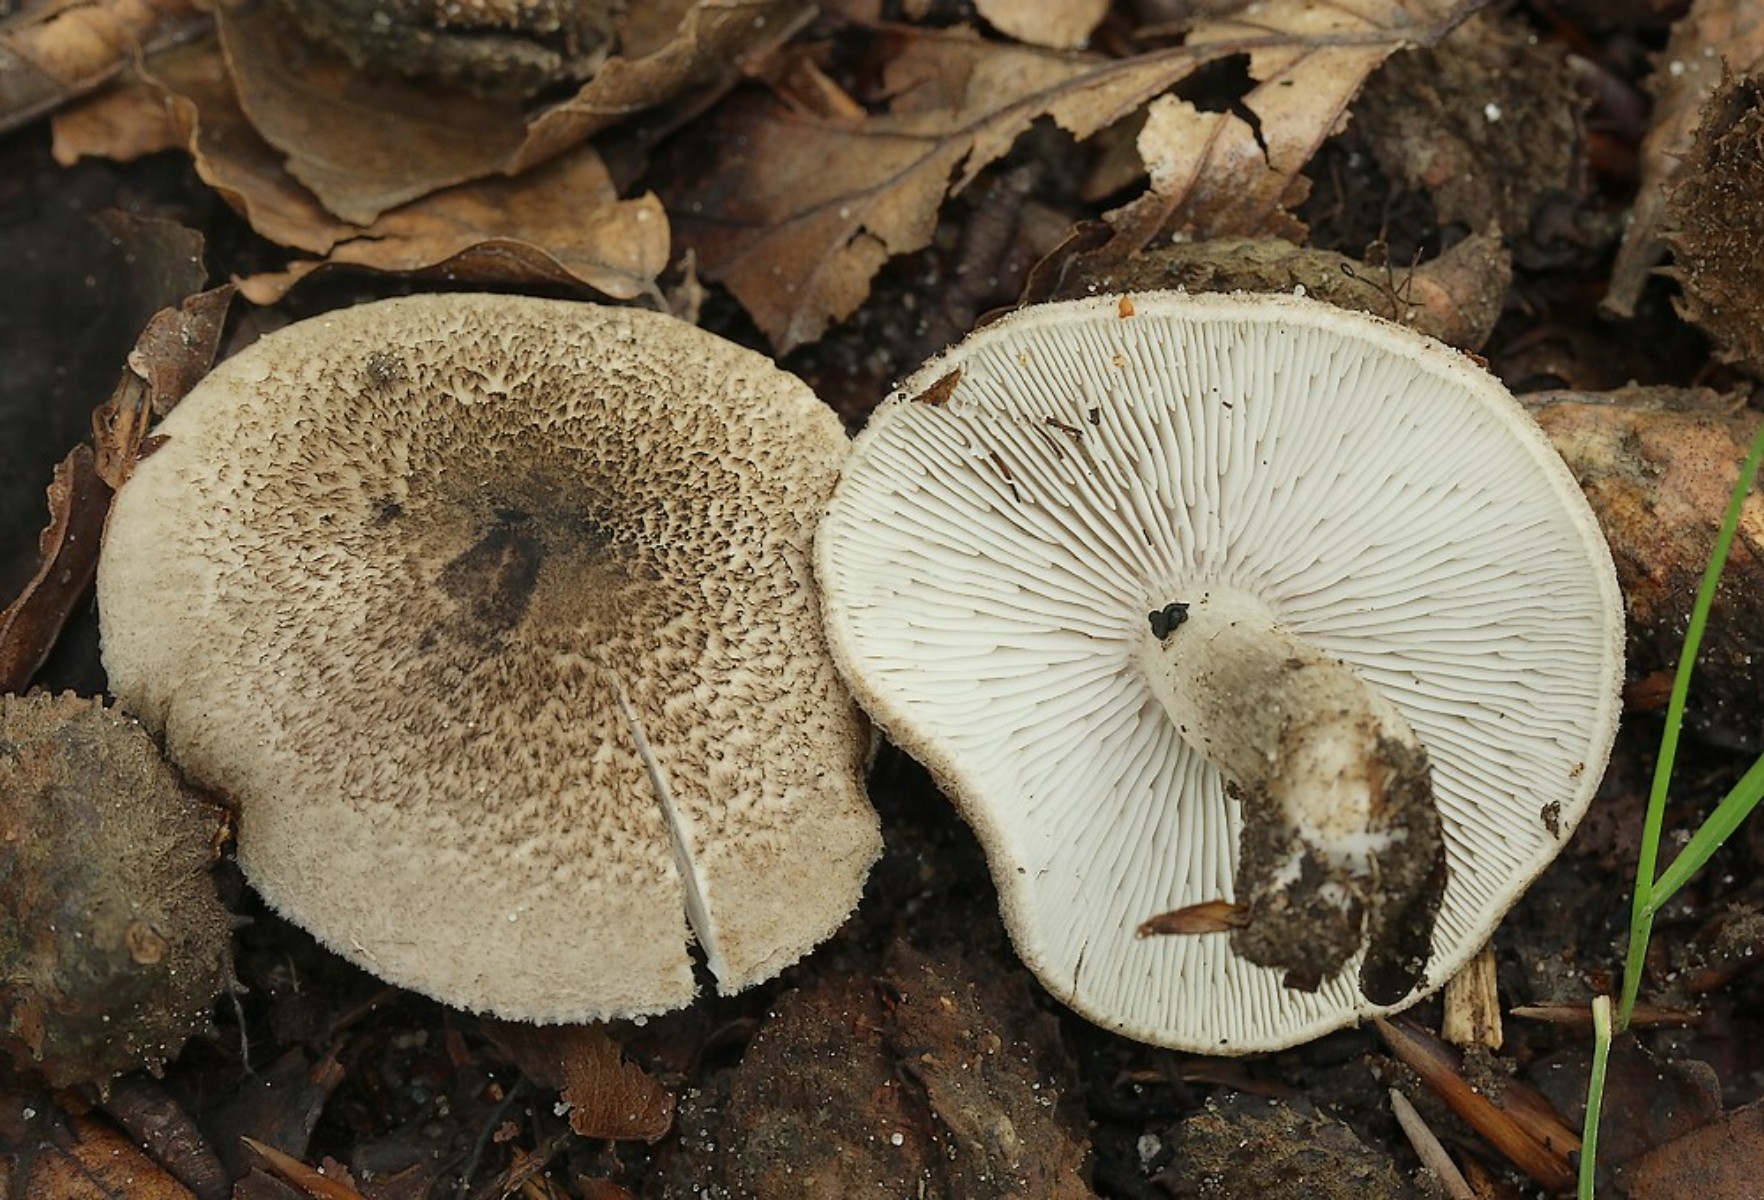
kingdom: Fungi
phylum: Basidiomycota
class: Agaricomycetes
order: Agaricales
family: Tricholomataceae
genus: Tricholoma
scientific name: Tricholoma scalpturatum
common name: gulplettet ridderhat
